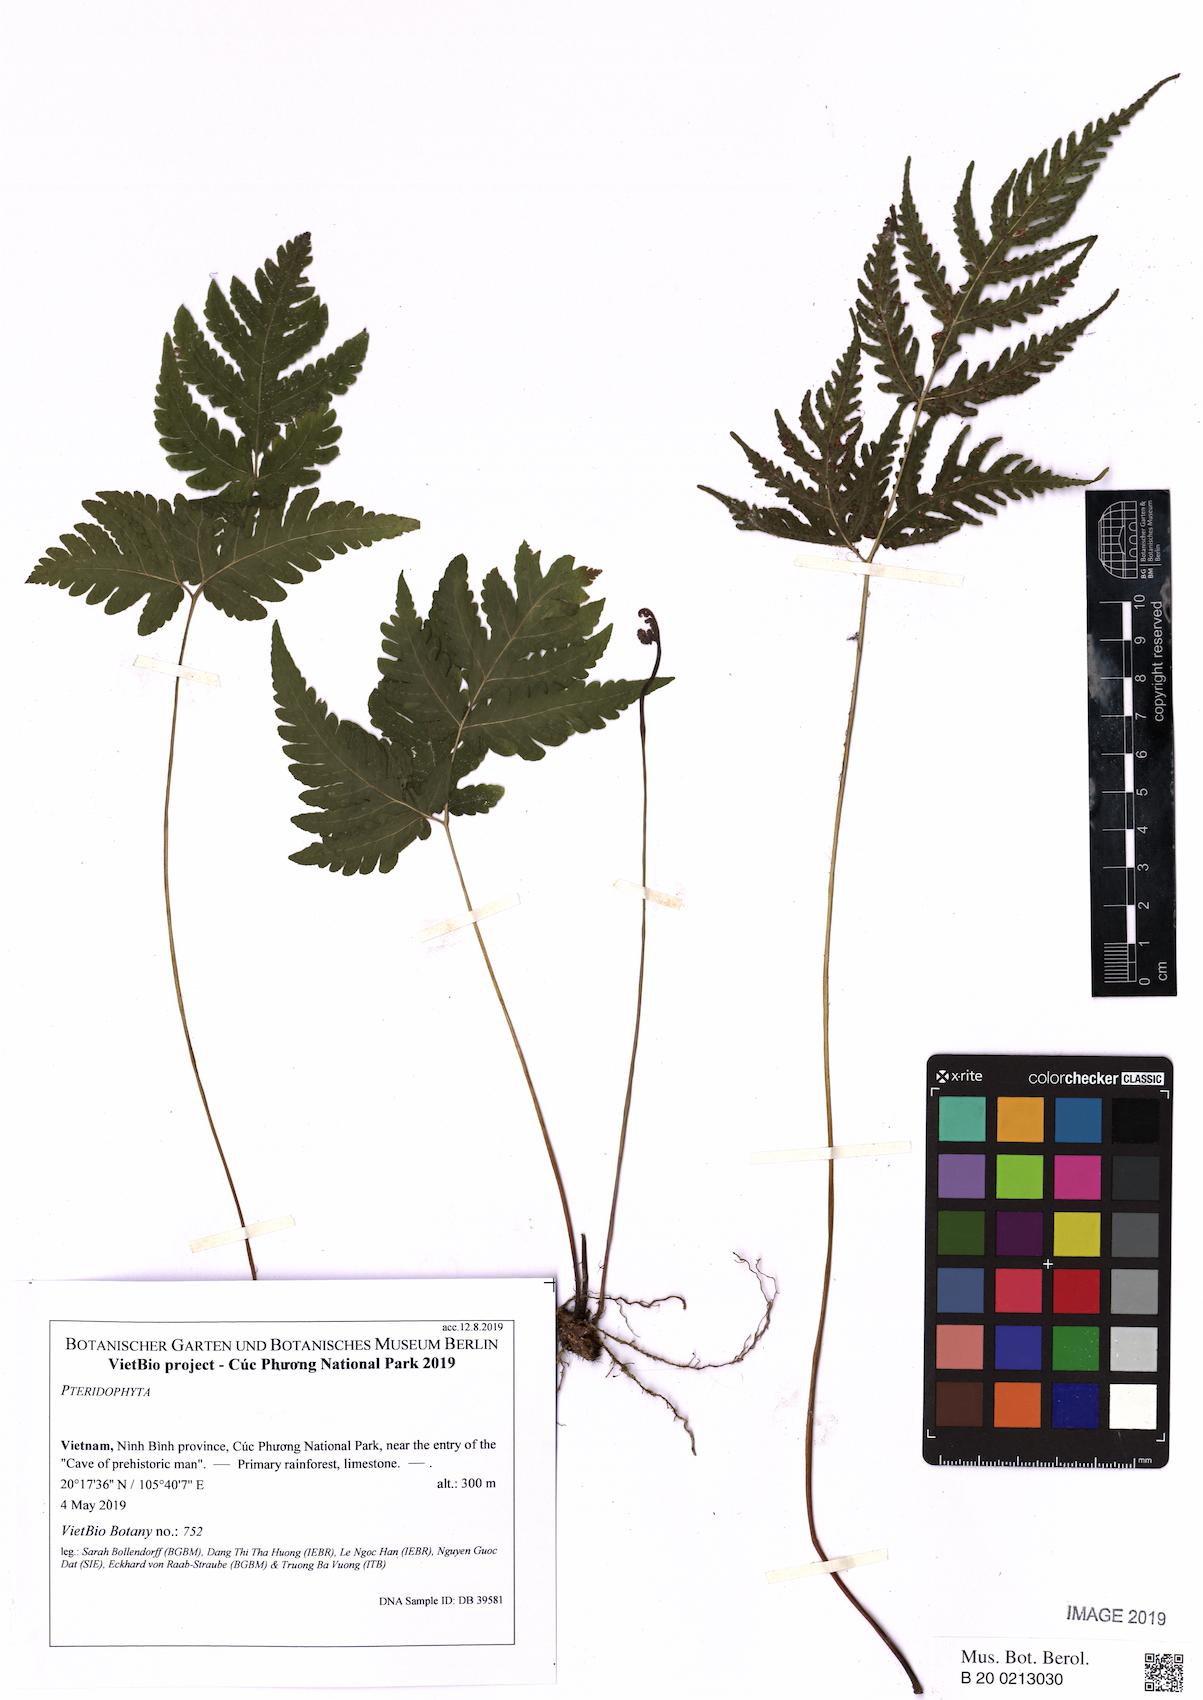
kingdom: Plantae
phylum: Tracheophyta
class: Polypodiopsida
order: Polypodiales
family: Tectariaceae
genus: Tectaria
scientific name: Tectaria impressa
